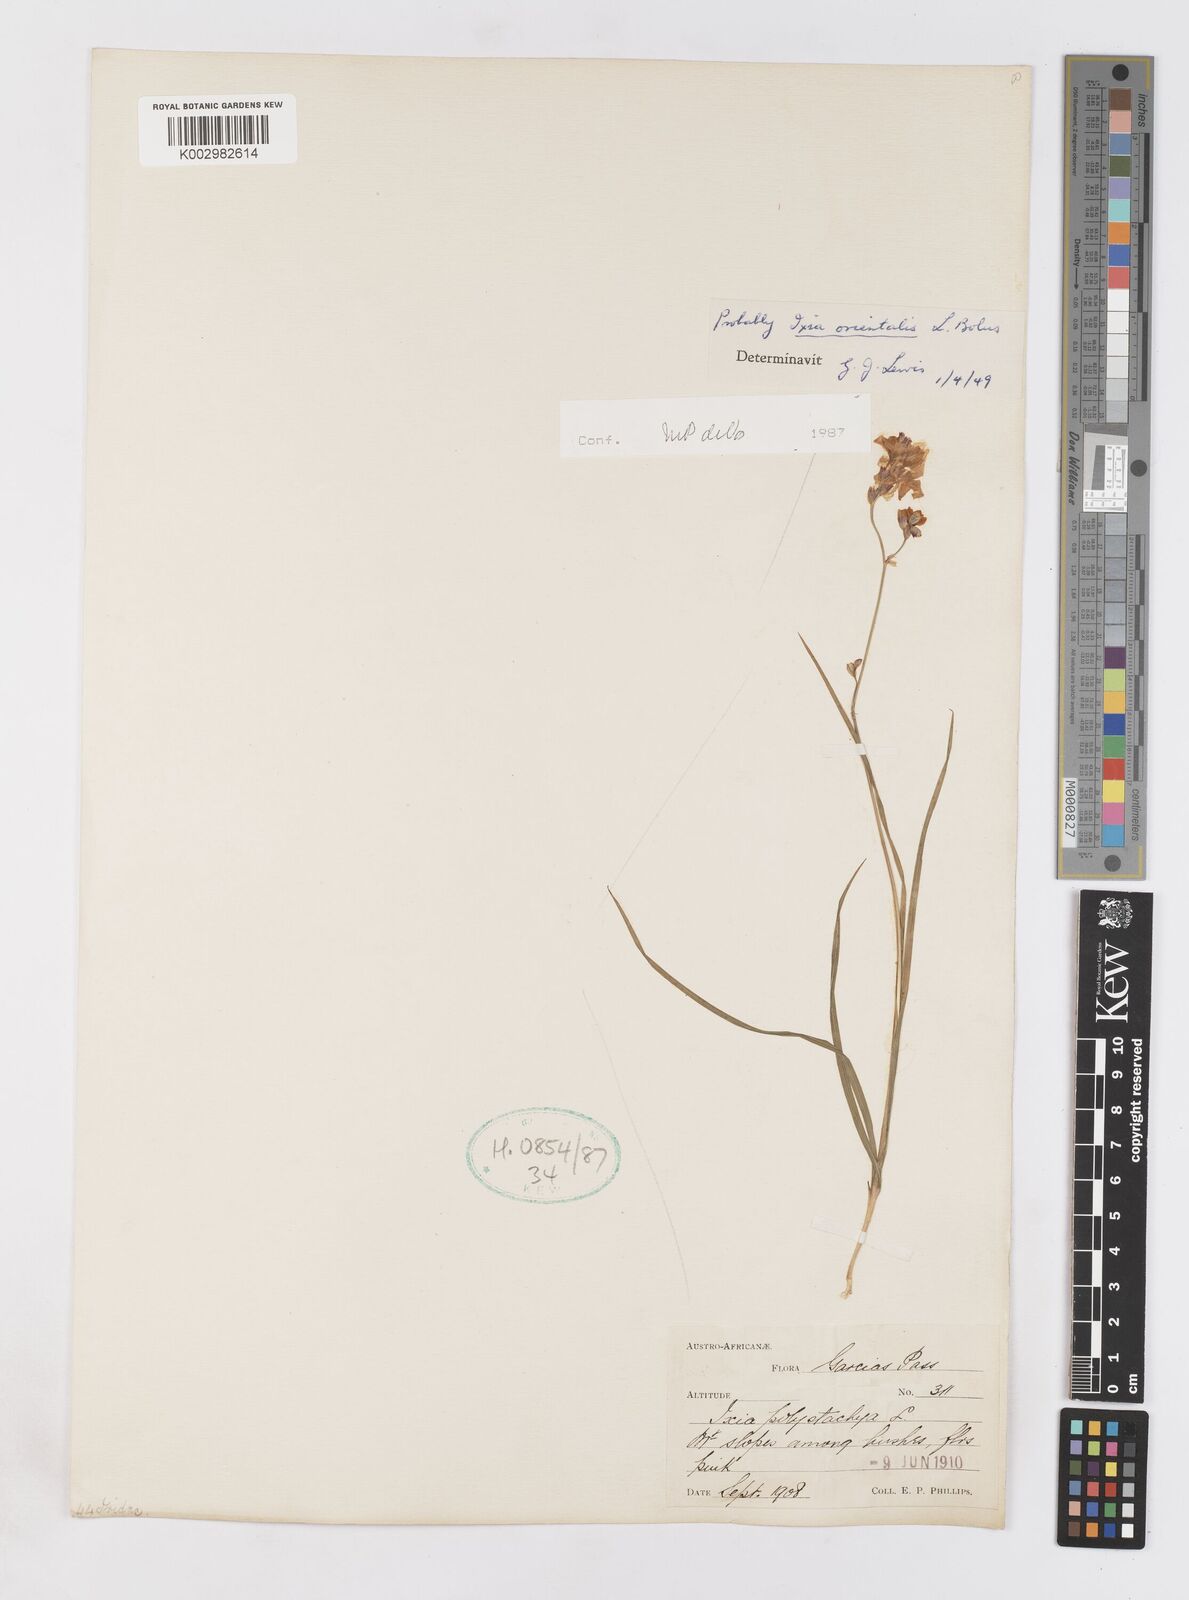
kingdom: Plantae
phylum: Tracheophyta
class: Liliopsida
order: Asparagales
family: Iridaceae
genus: Ixia
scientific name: Ixia orientalis
